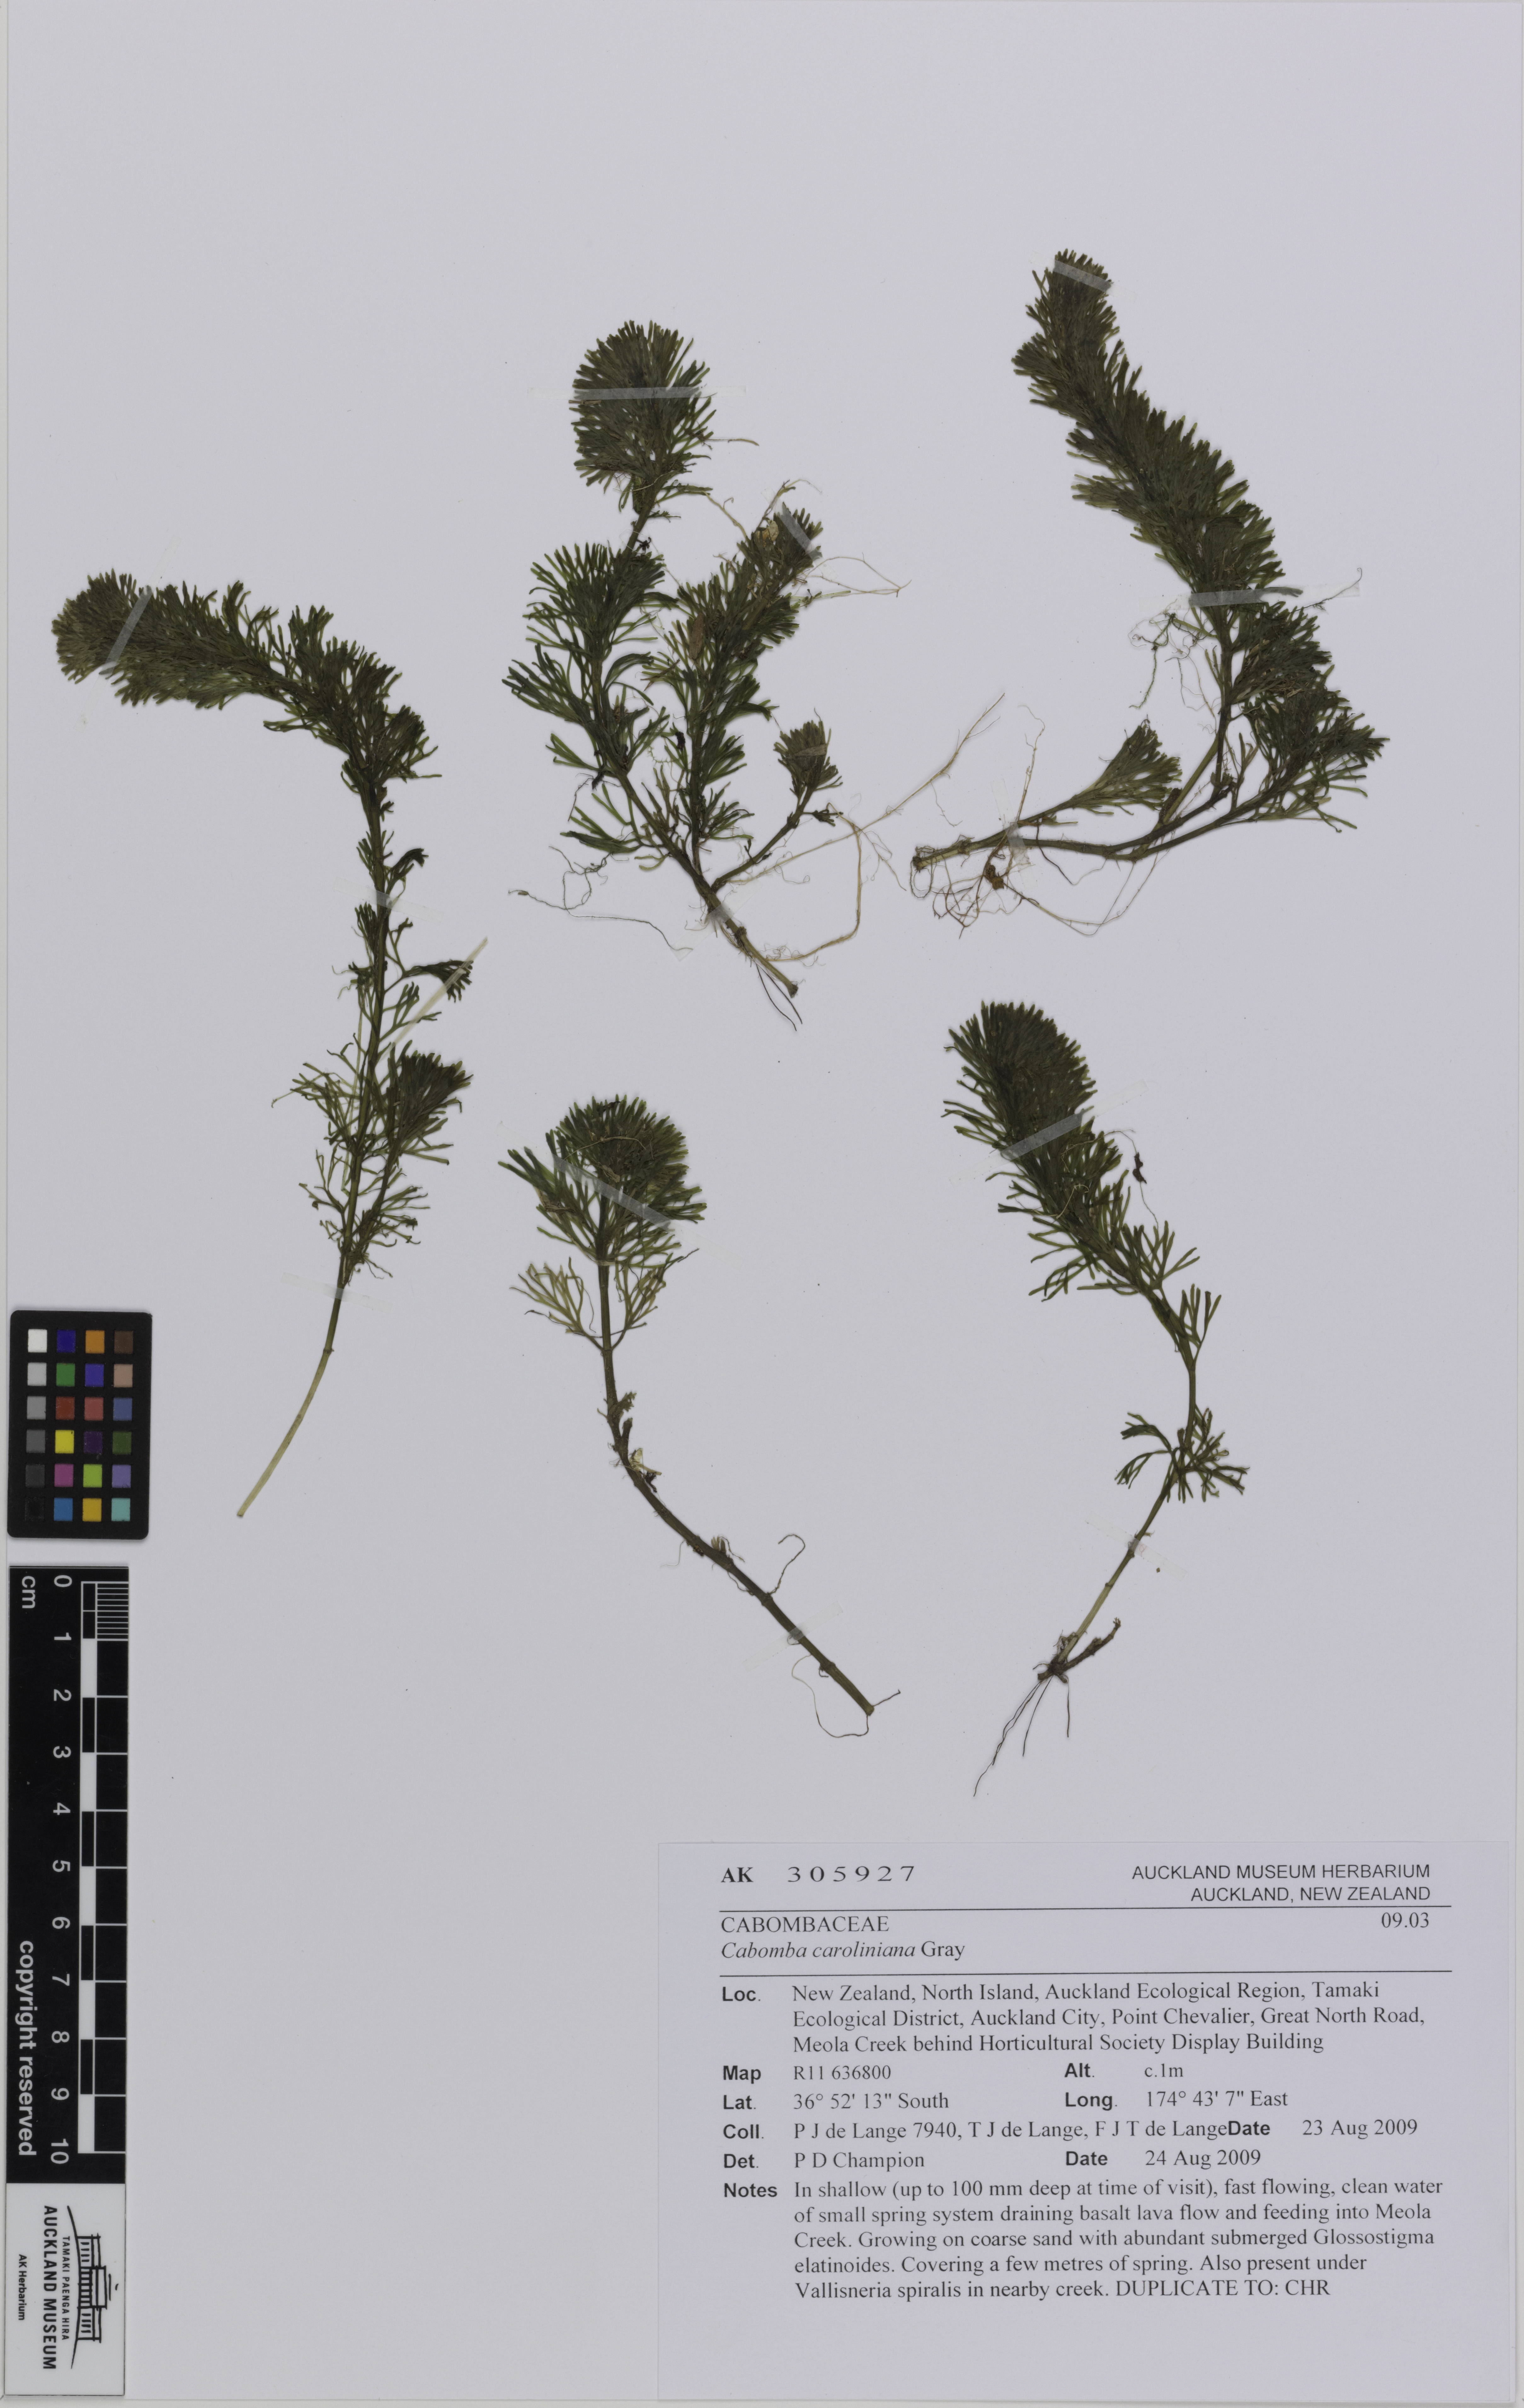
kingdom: Plantae
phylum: Tracheophyta
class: Magnoliopsida
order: Nymphaeales
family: Cabombaceae
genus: Cabomba
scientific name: Cabomba caroliniana
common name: Fanwort
